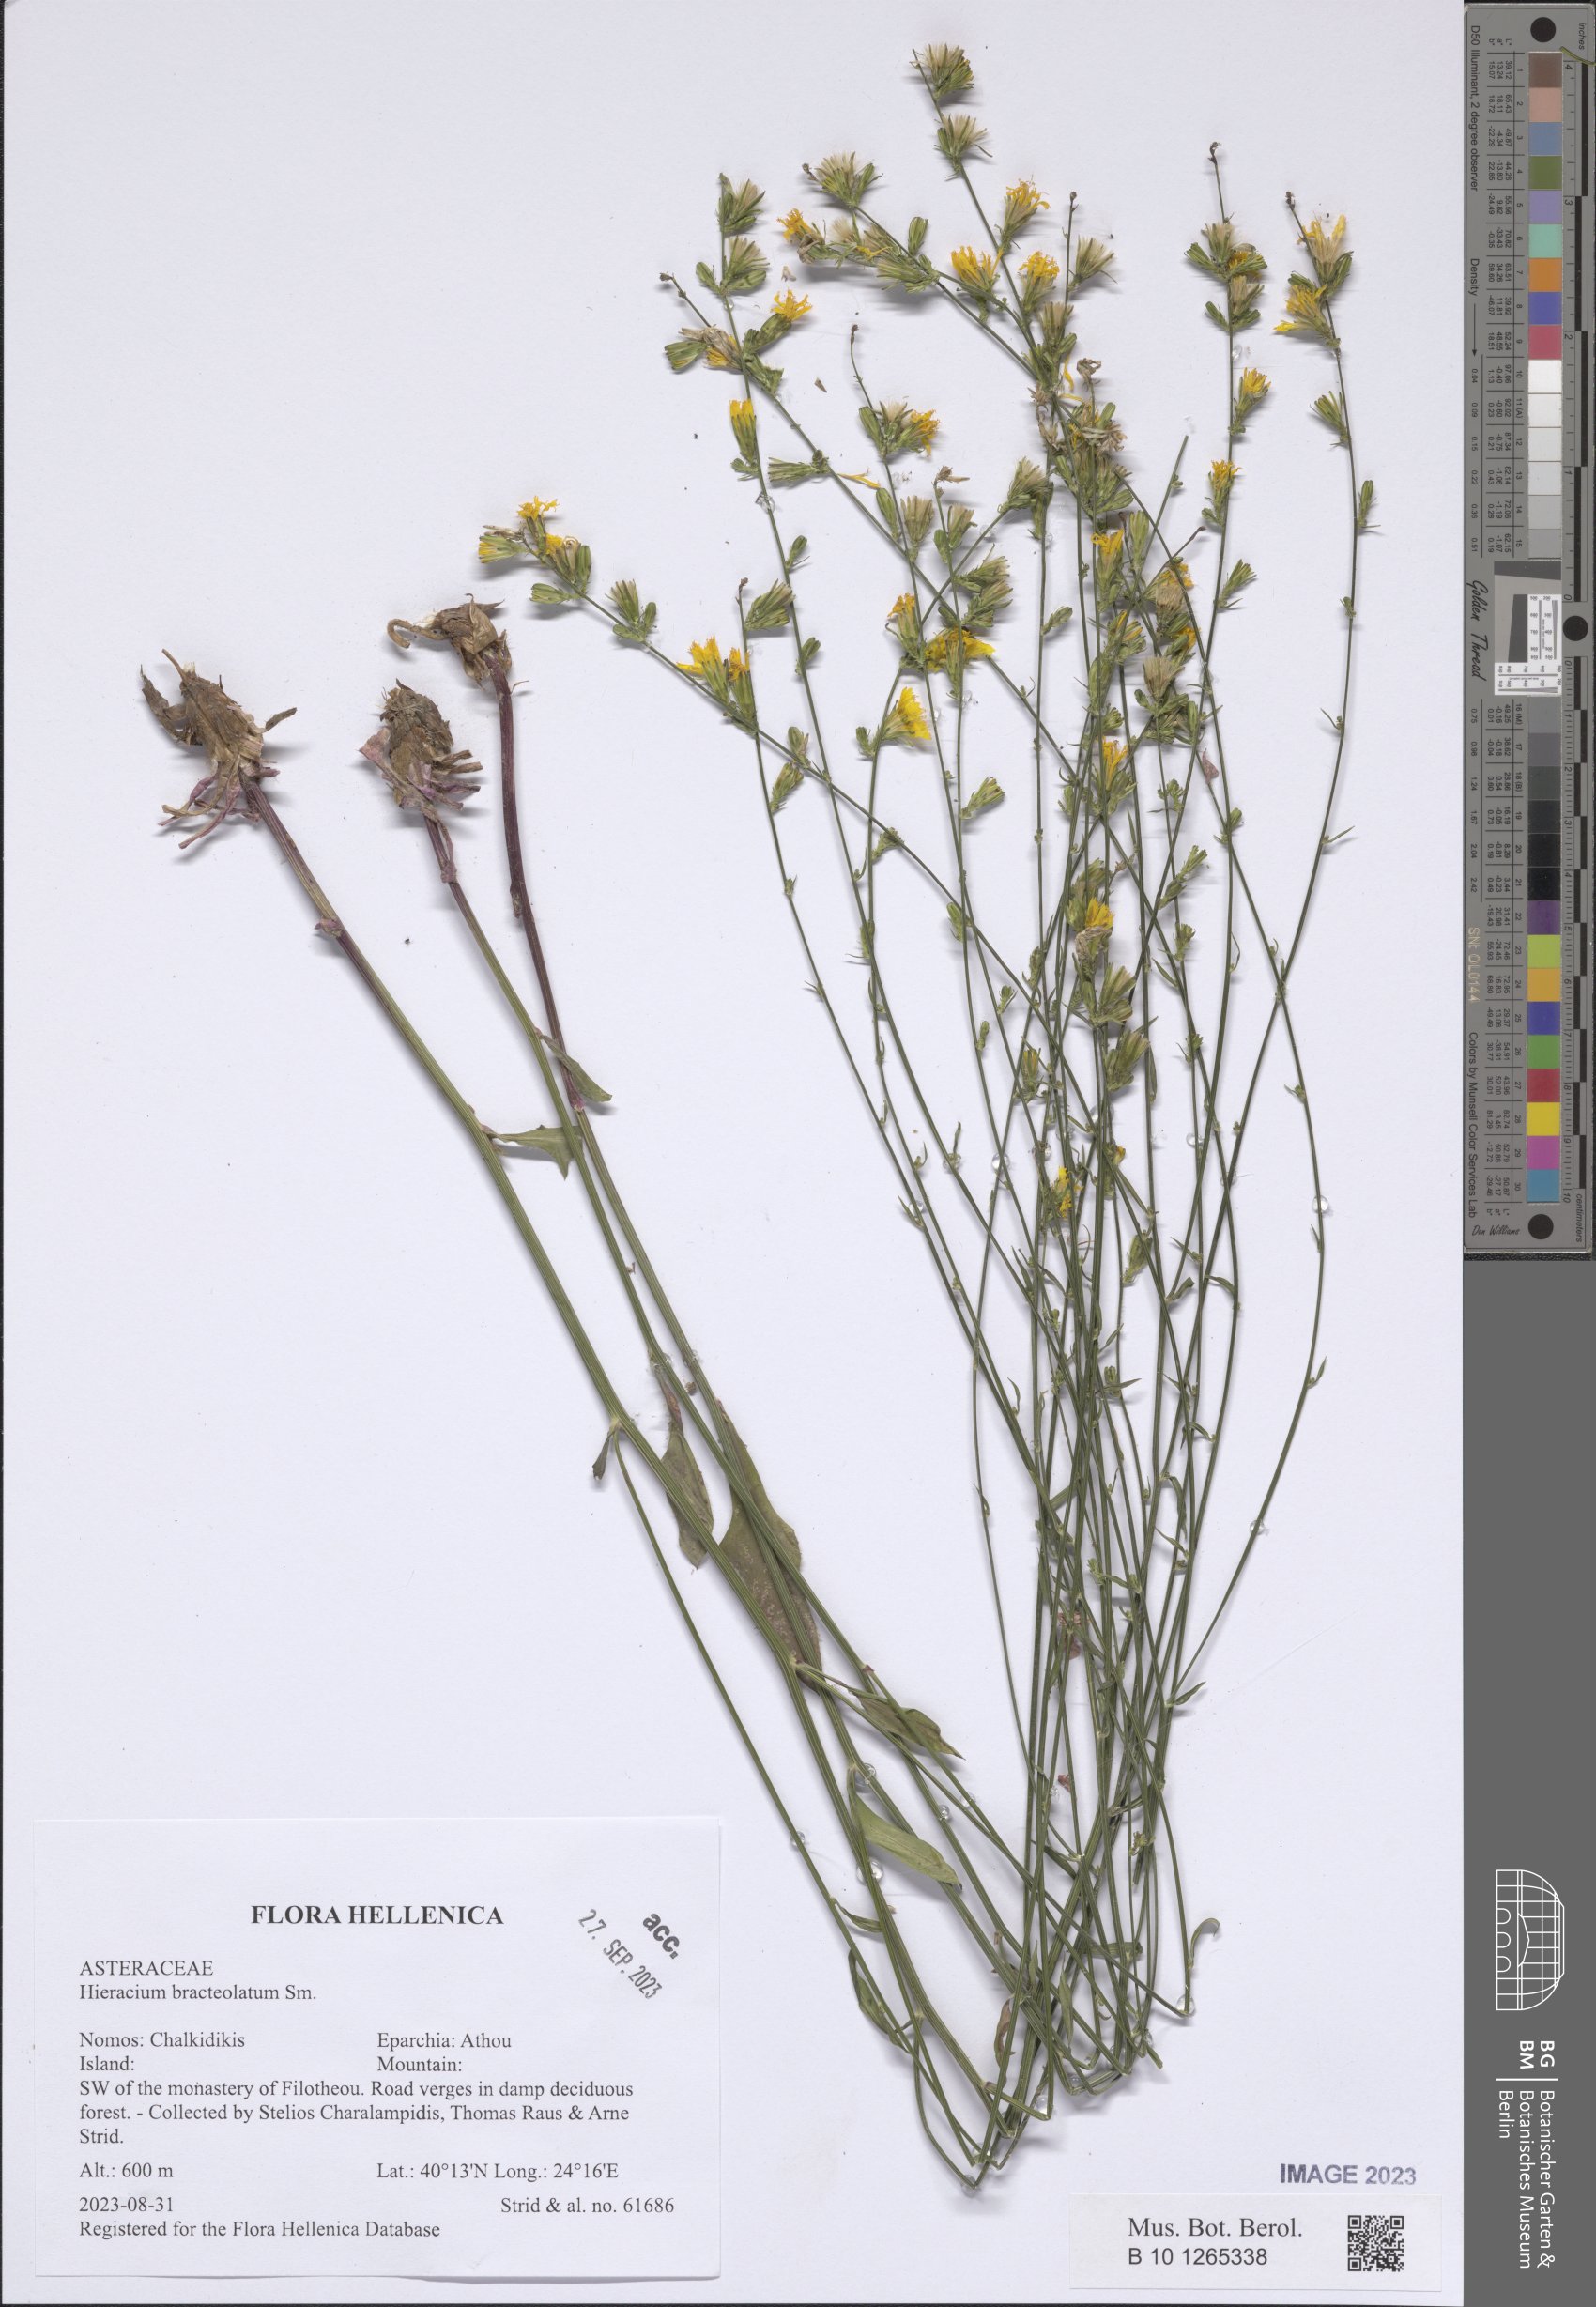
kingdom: Plantae
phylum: Tracheophyta
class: Magnoliopsida
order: Asterales
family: Asteraceae
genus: Hieracium
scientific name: Hieracium bracteolatum
